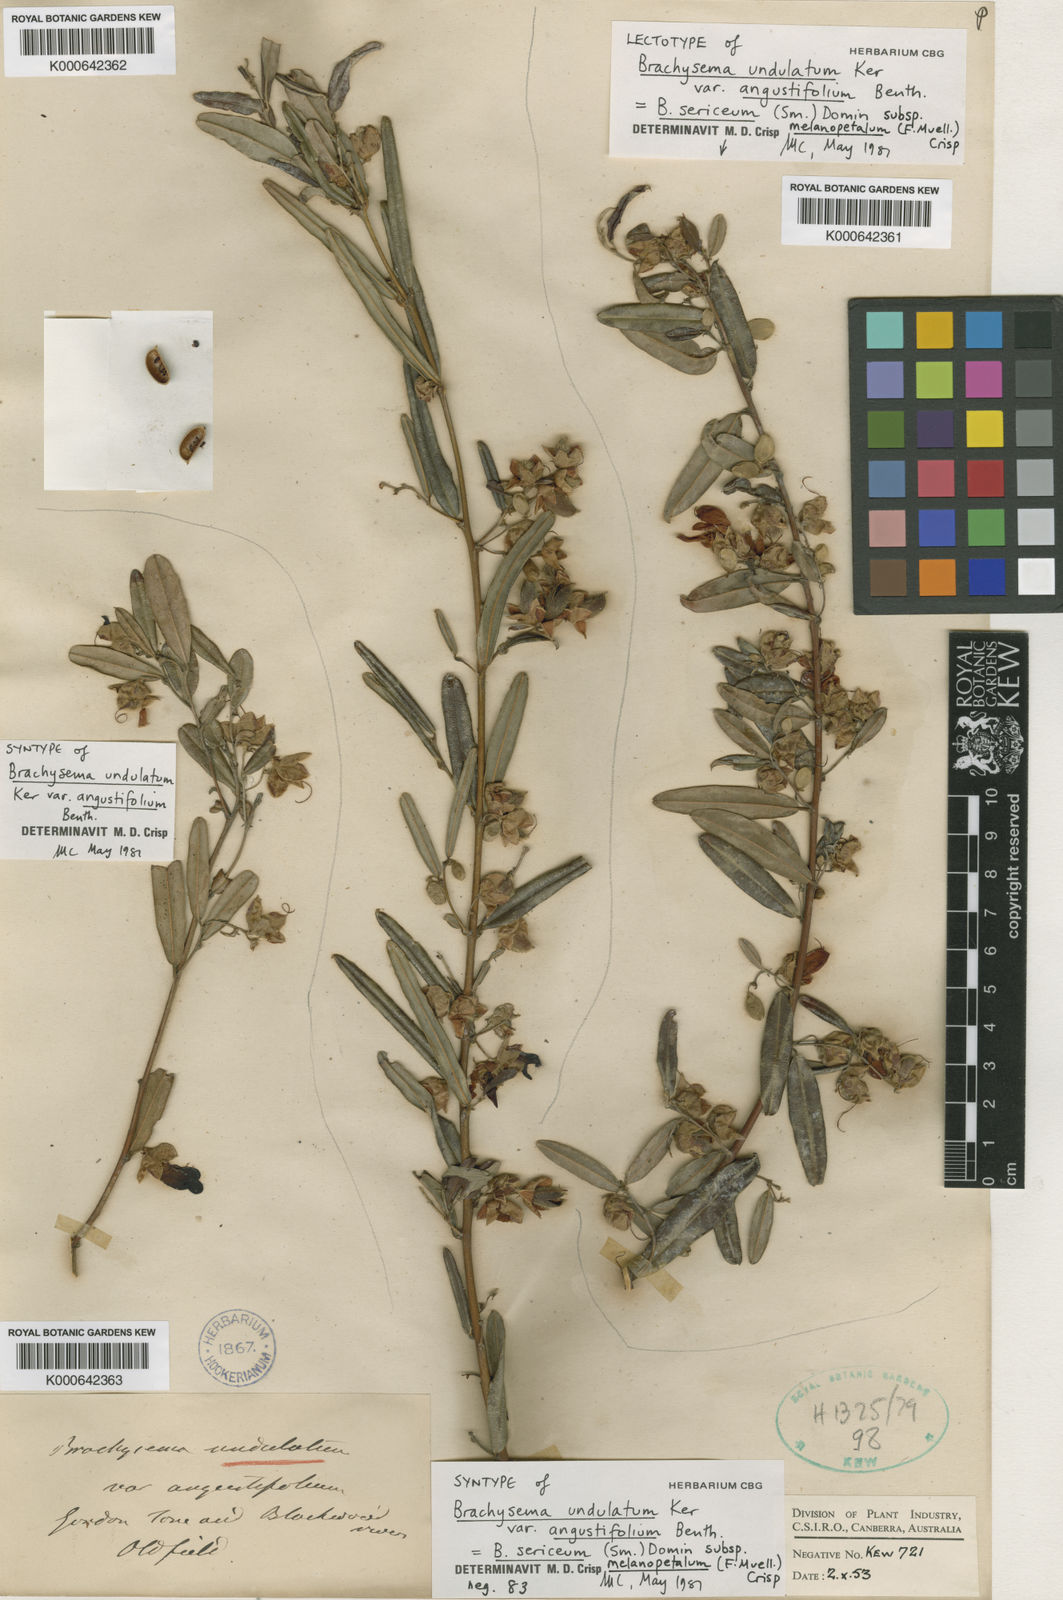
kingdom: Plantae
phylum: Tracheophyta
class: Magnoliopsida
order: Fabales
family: Fabaceae
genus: Gastrolobium
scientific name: Gastrolobium sericeum
